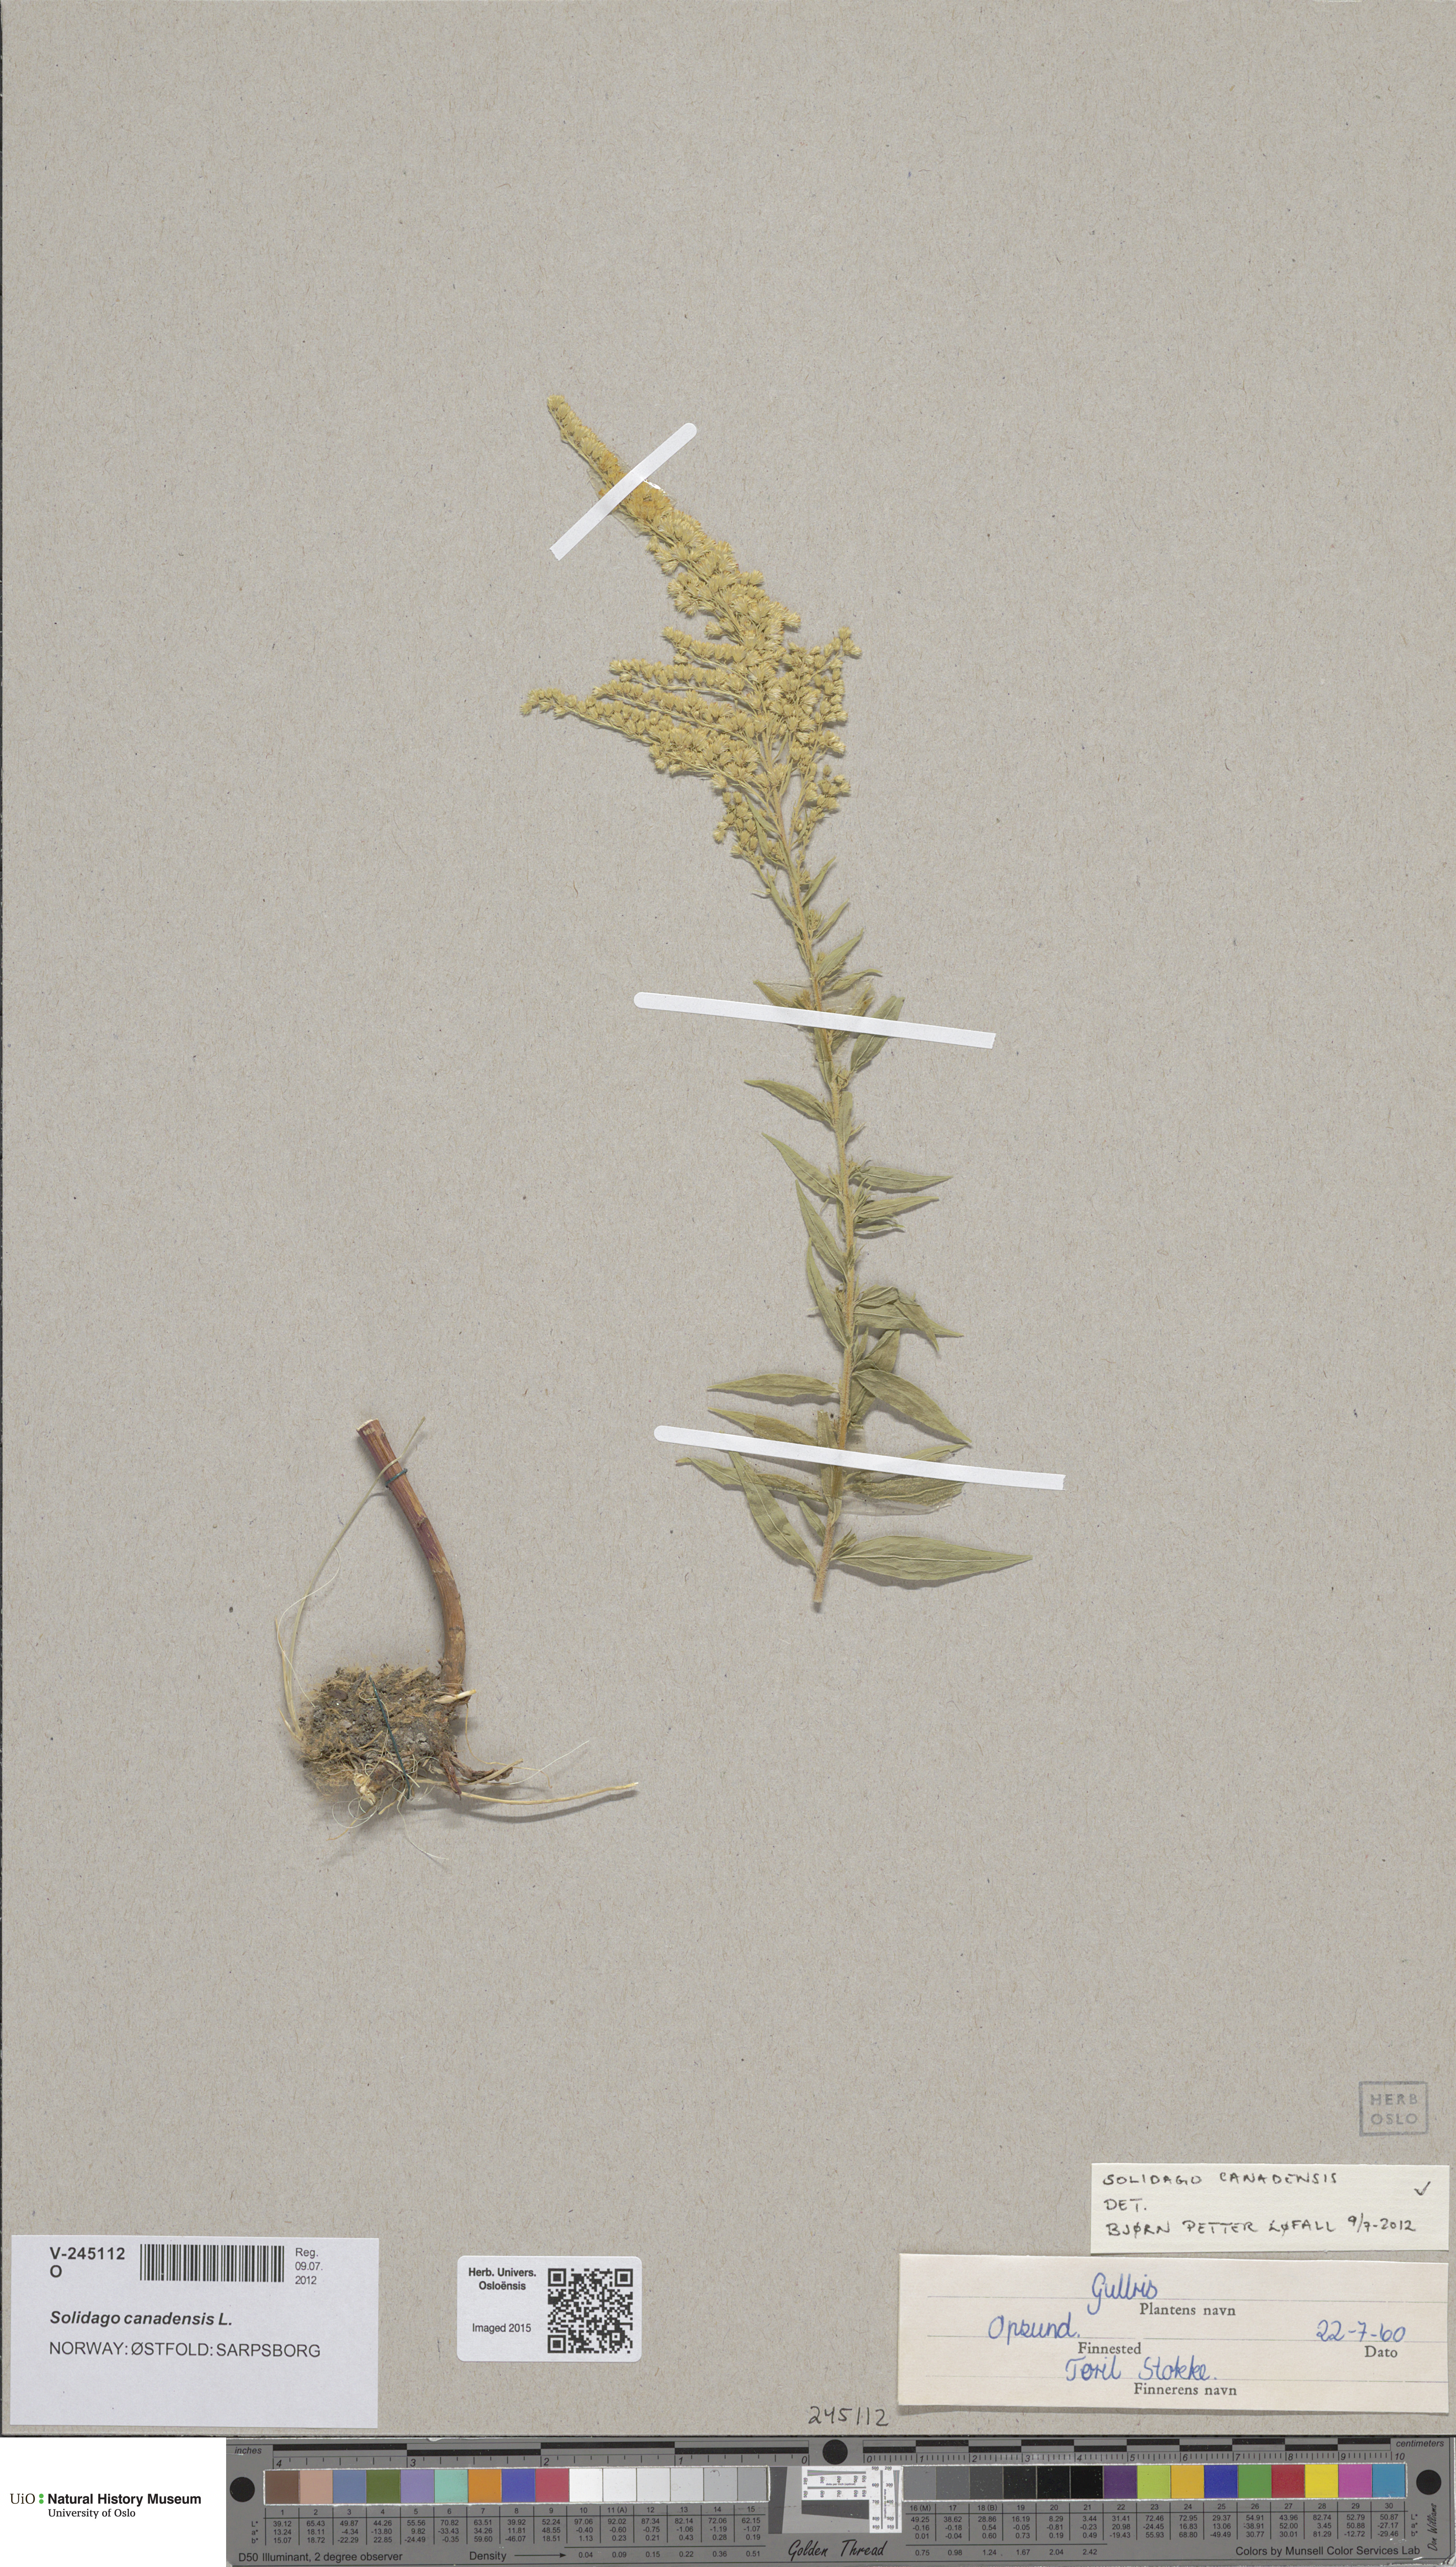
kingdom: Plantae
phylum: Tracheophyta
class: Magnoliopsida
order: Asterales
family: Asteraceae
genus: Solidago
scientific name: Solidago canadensis
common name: Canada goldenrod
